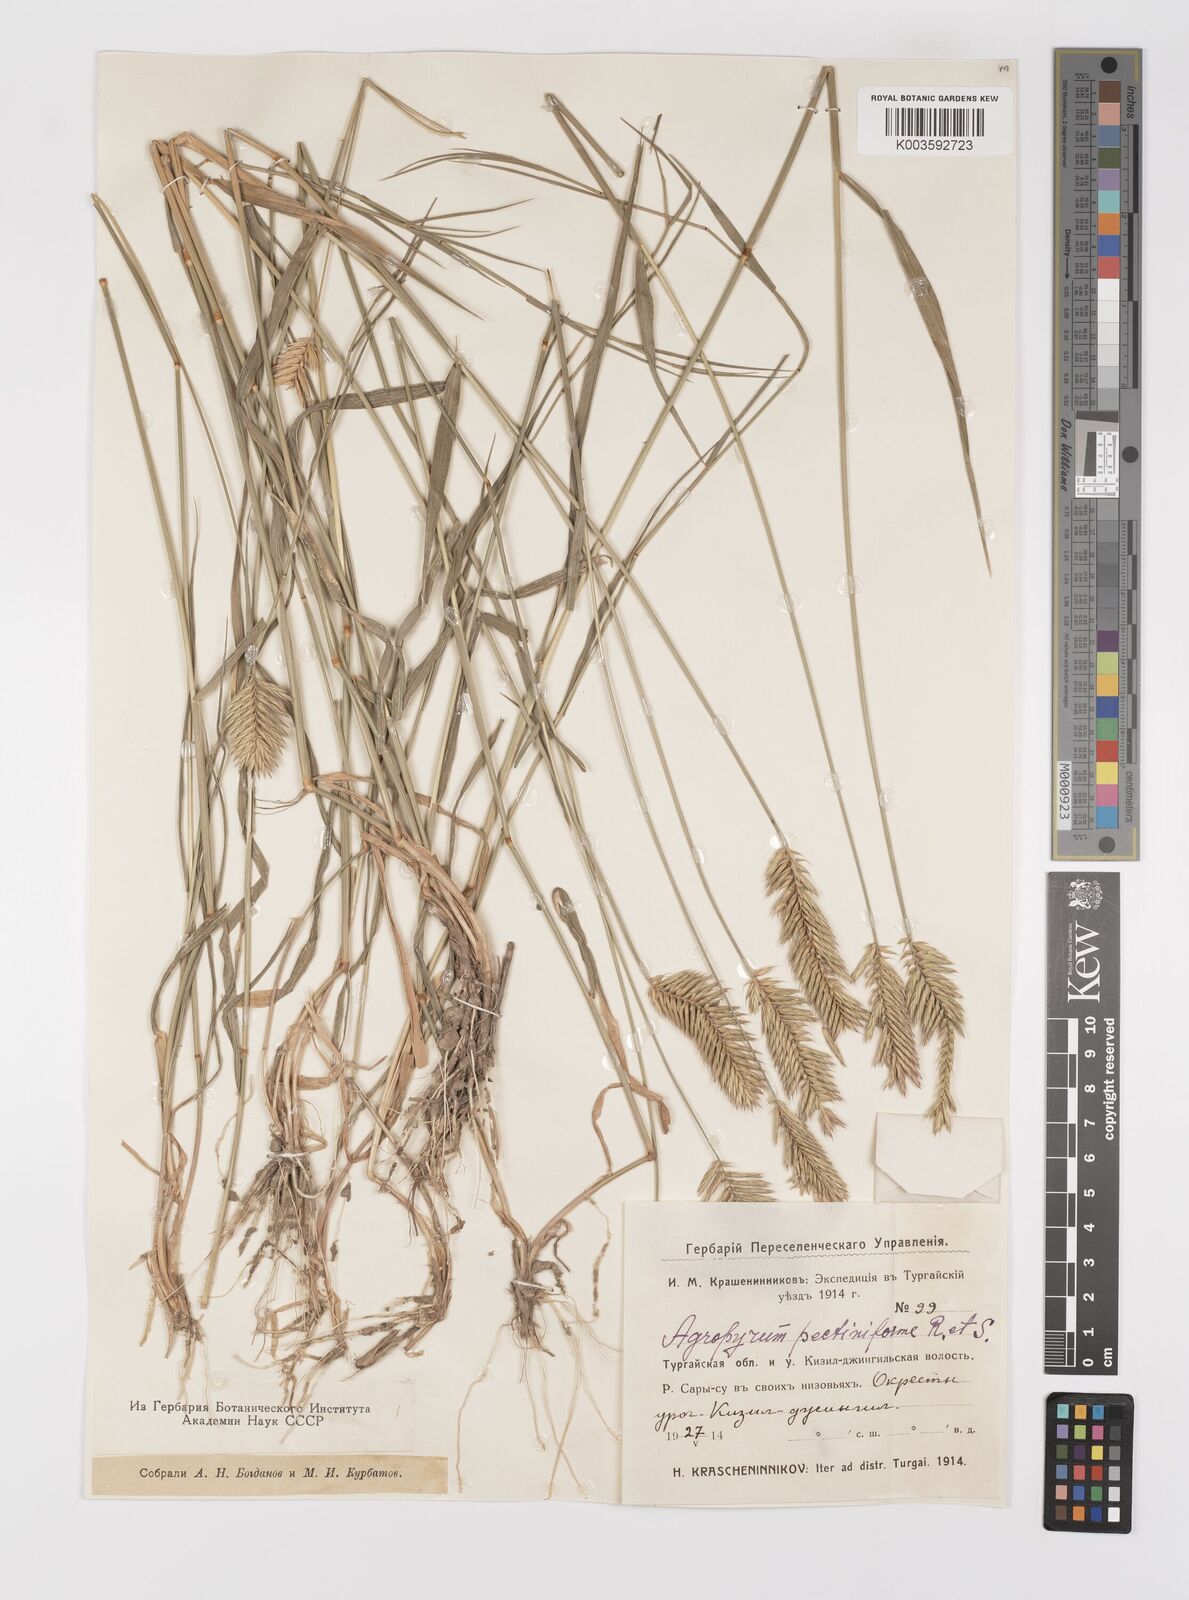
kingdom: Plantae
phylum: Tracheophyta
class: Liliopsida
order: Poales
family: Poaceae
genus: Agropyron
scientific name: Agropyron cristatum
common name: Crested wheatgrass
